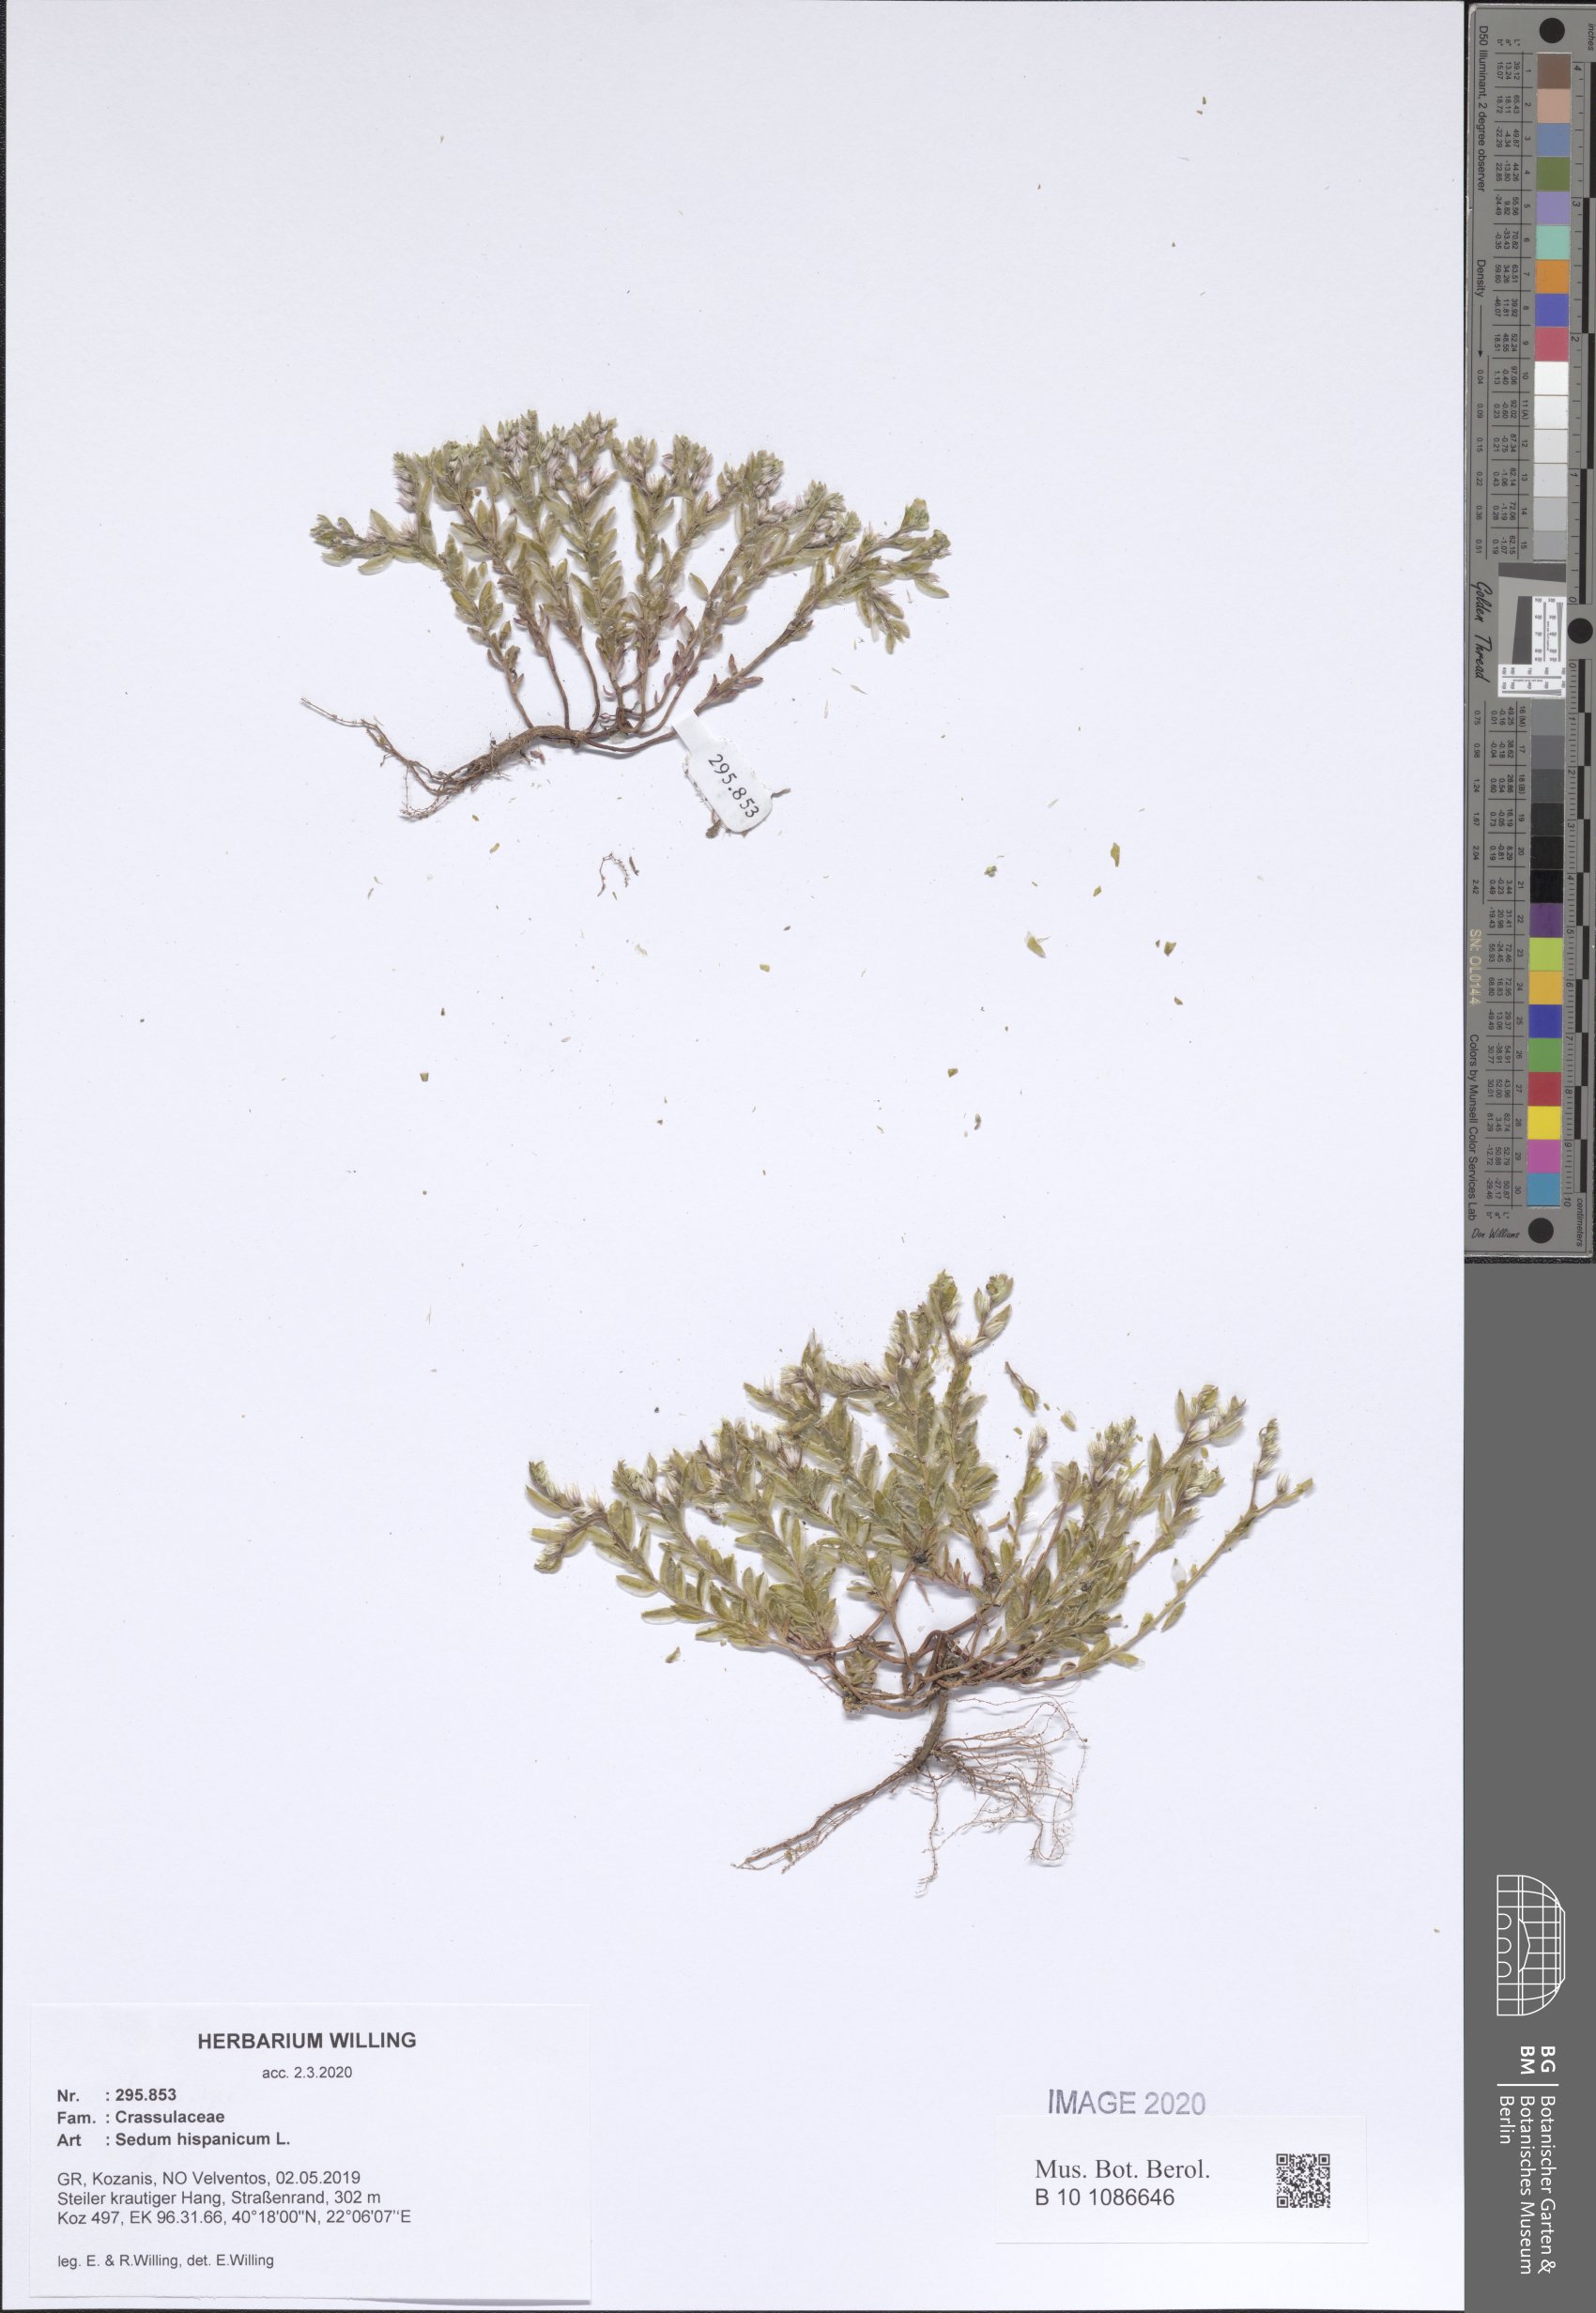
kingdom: Plantae
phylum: Tracheophyta
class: Magnoliopsida
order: Saxifragales
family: Crassulaceae
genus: Sedum
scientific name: Sedum hispanicum
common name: Spanish stonecrop
